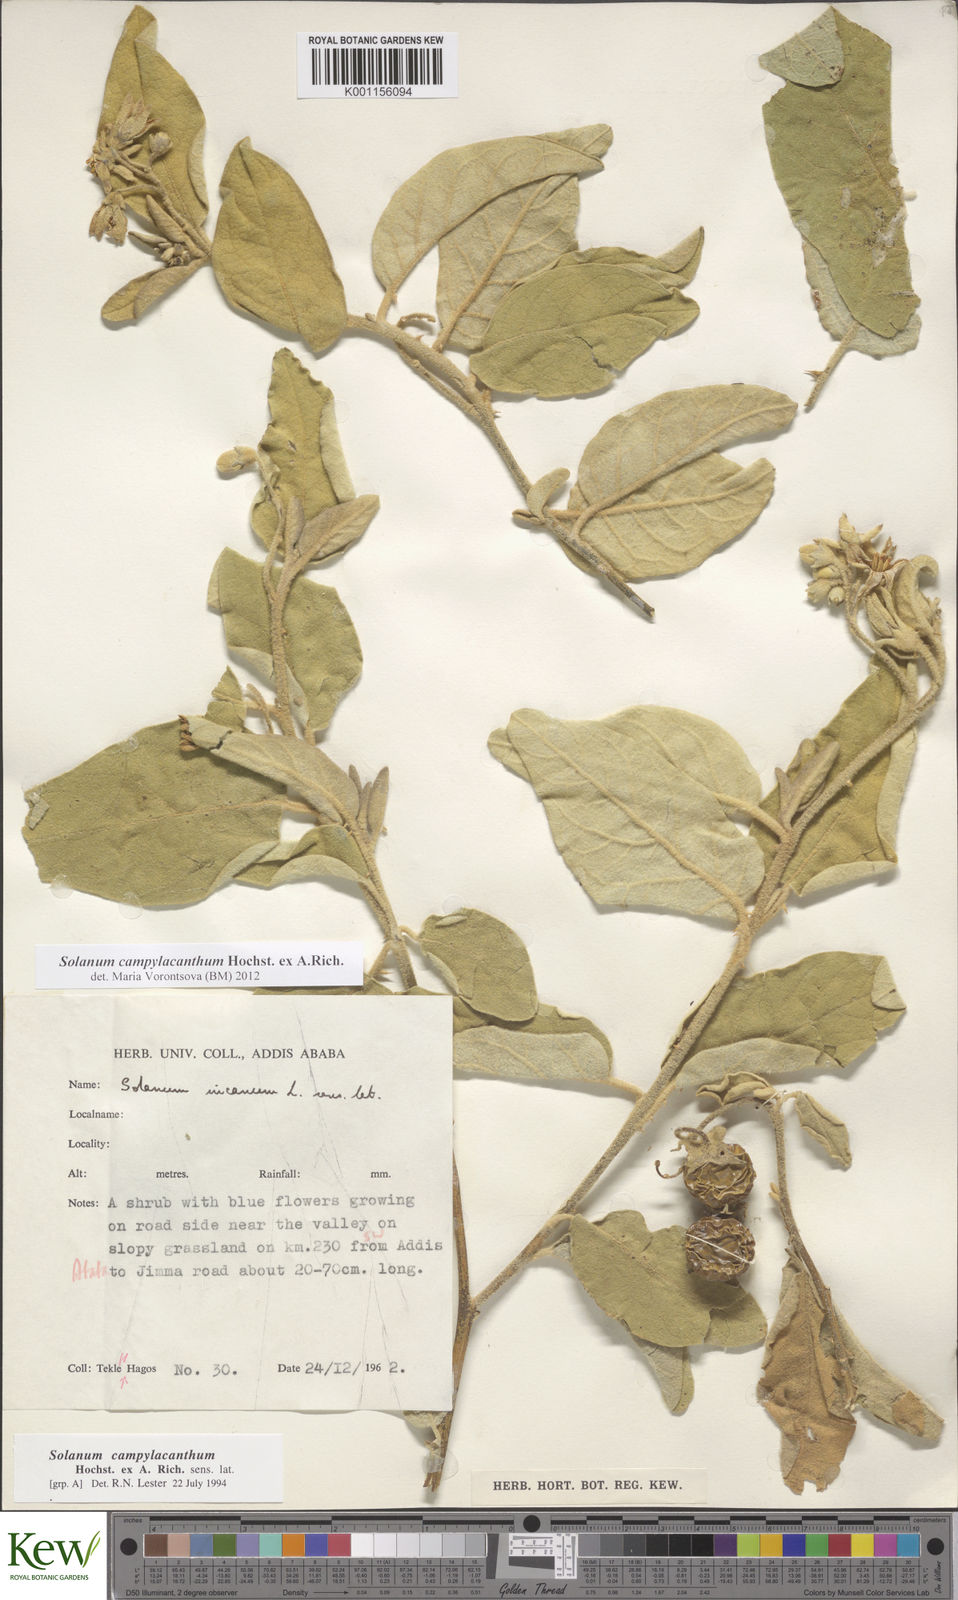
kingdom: Plantae
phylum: Tracheophyta
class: Magnoliopsida
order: Solanales
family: Solanaceae
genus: Solanum
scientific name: Solanum campylacanthum
